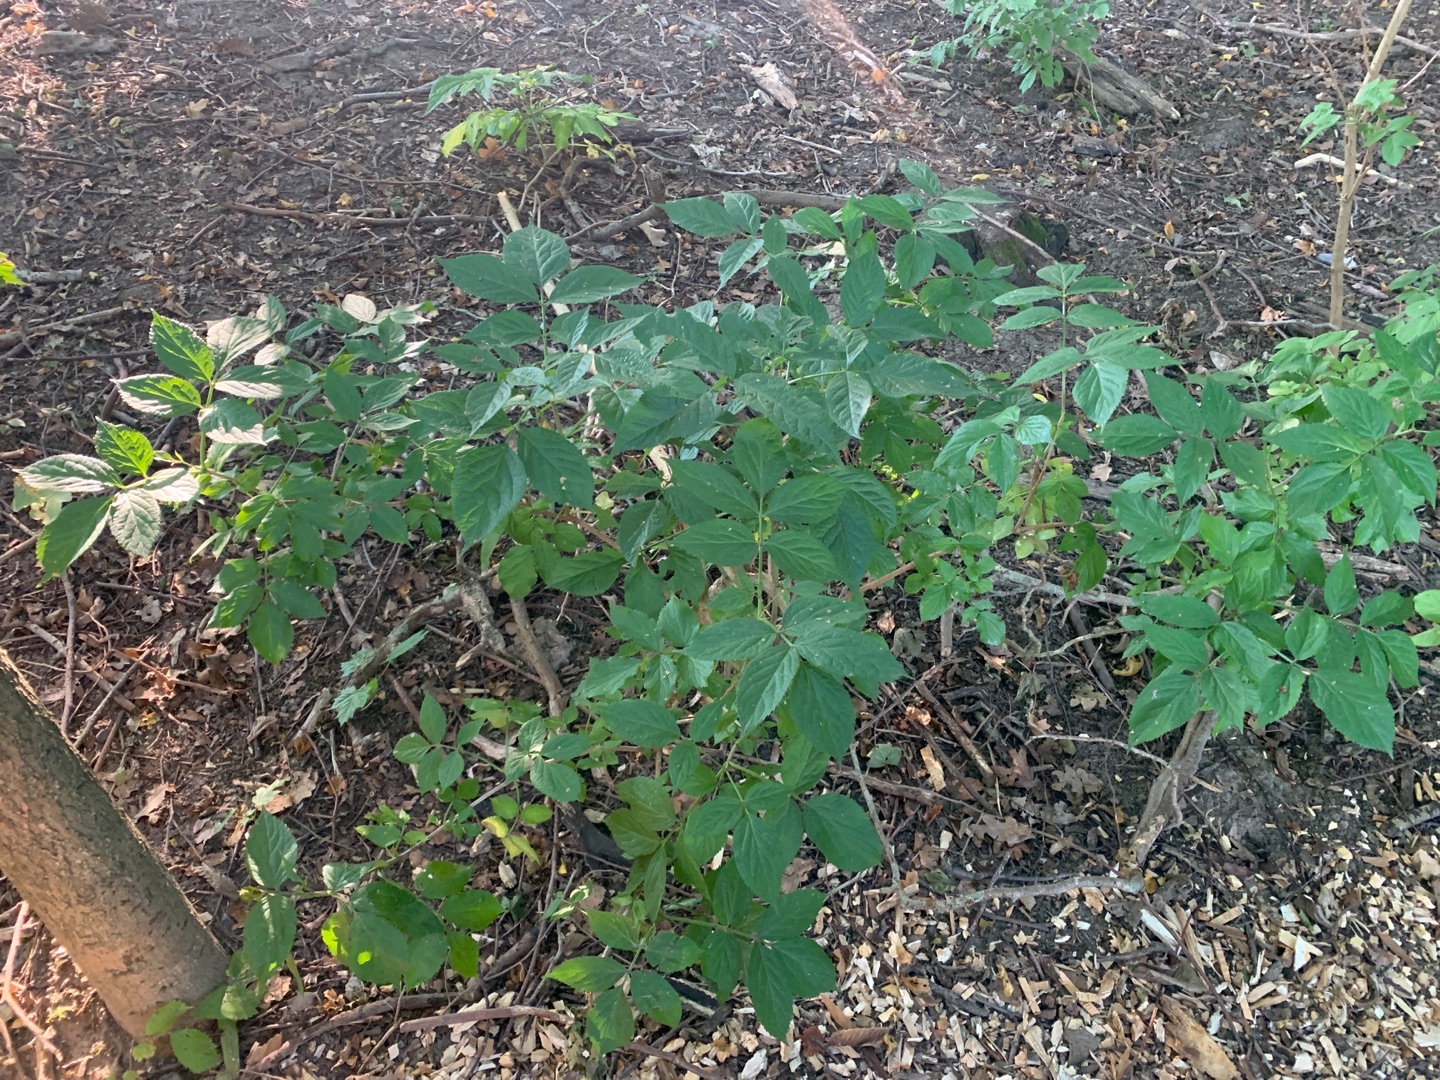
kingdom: Plantae
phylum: Tracheophyta
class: Magnoliopsida
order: Dipsacales
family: Viburnaceae
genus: Sambucus
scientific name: Sambucus
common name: Hyldeslægten
